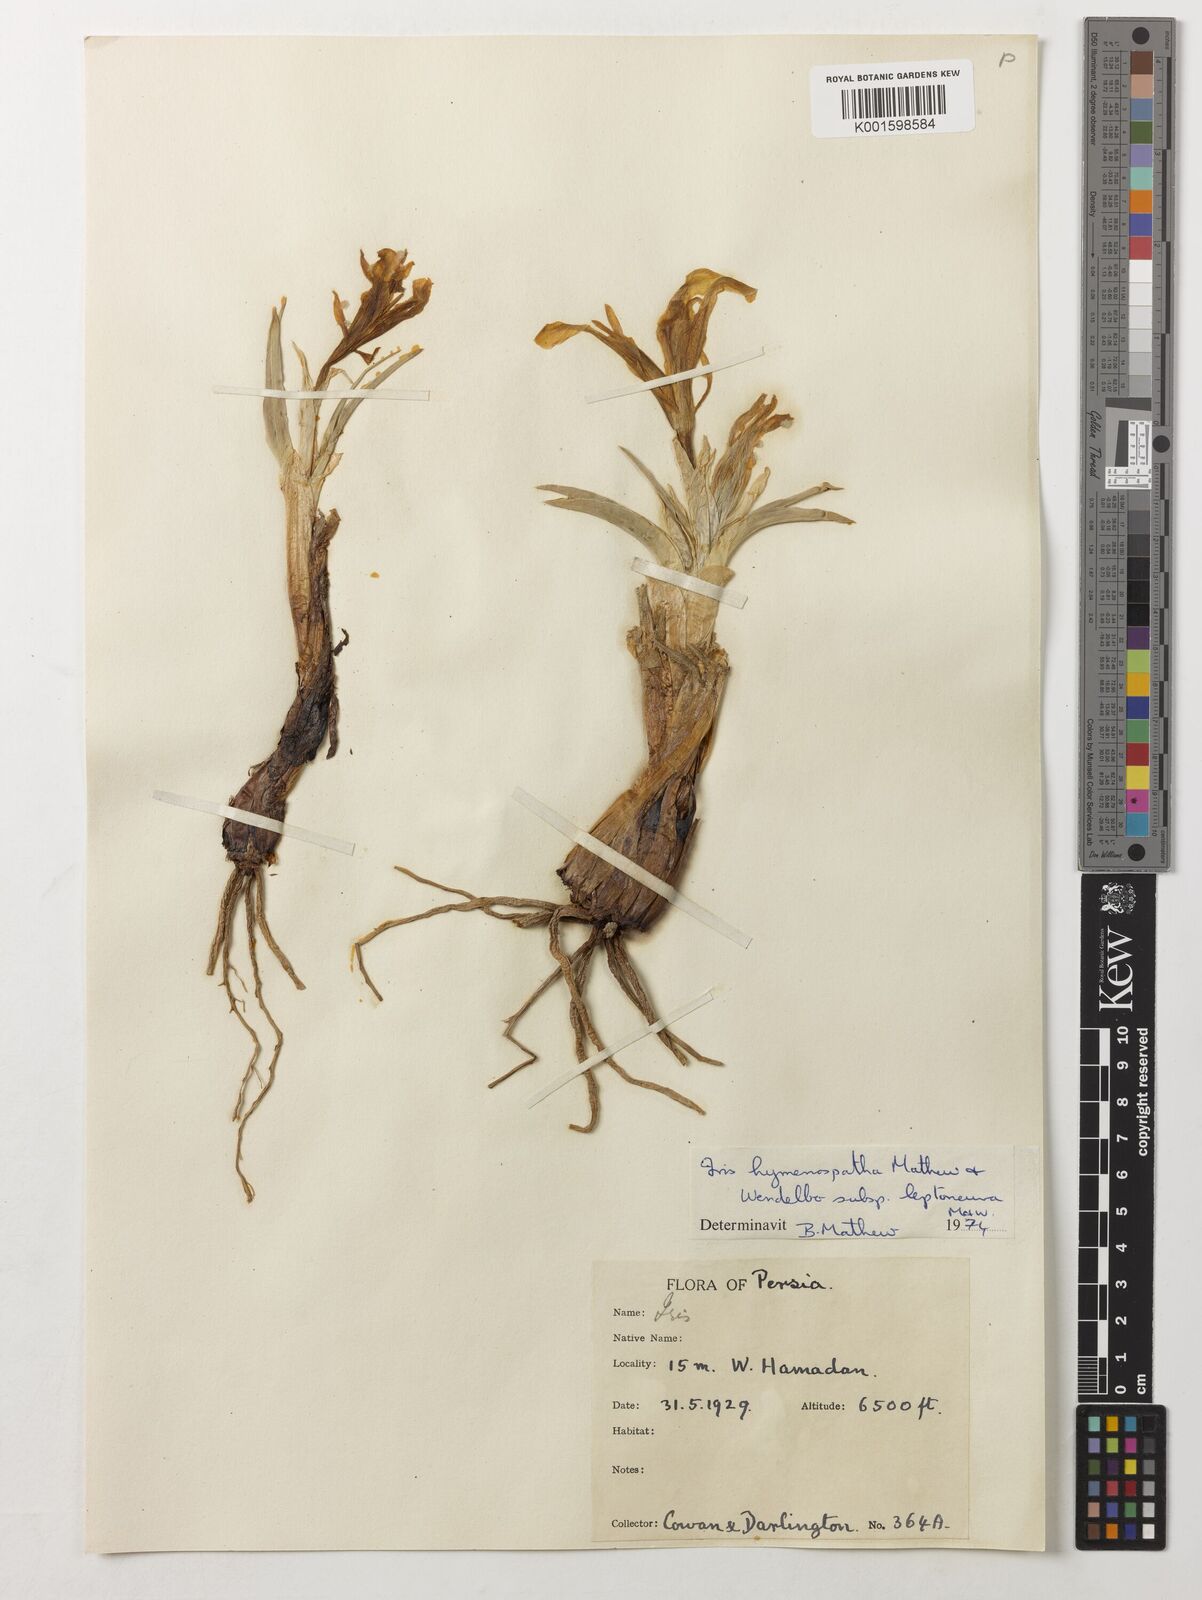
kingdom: Plantae
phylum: Tracheophyta
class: Liliopsida
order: Asparagales
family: Iridaceae
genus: Iris
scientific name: Iris hymenospatha
